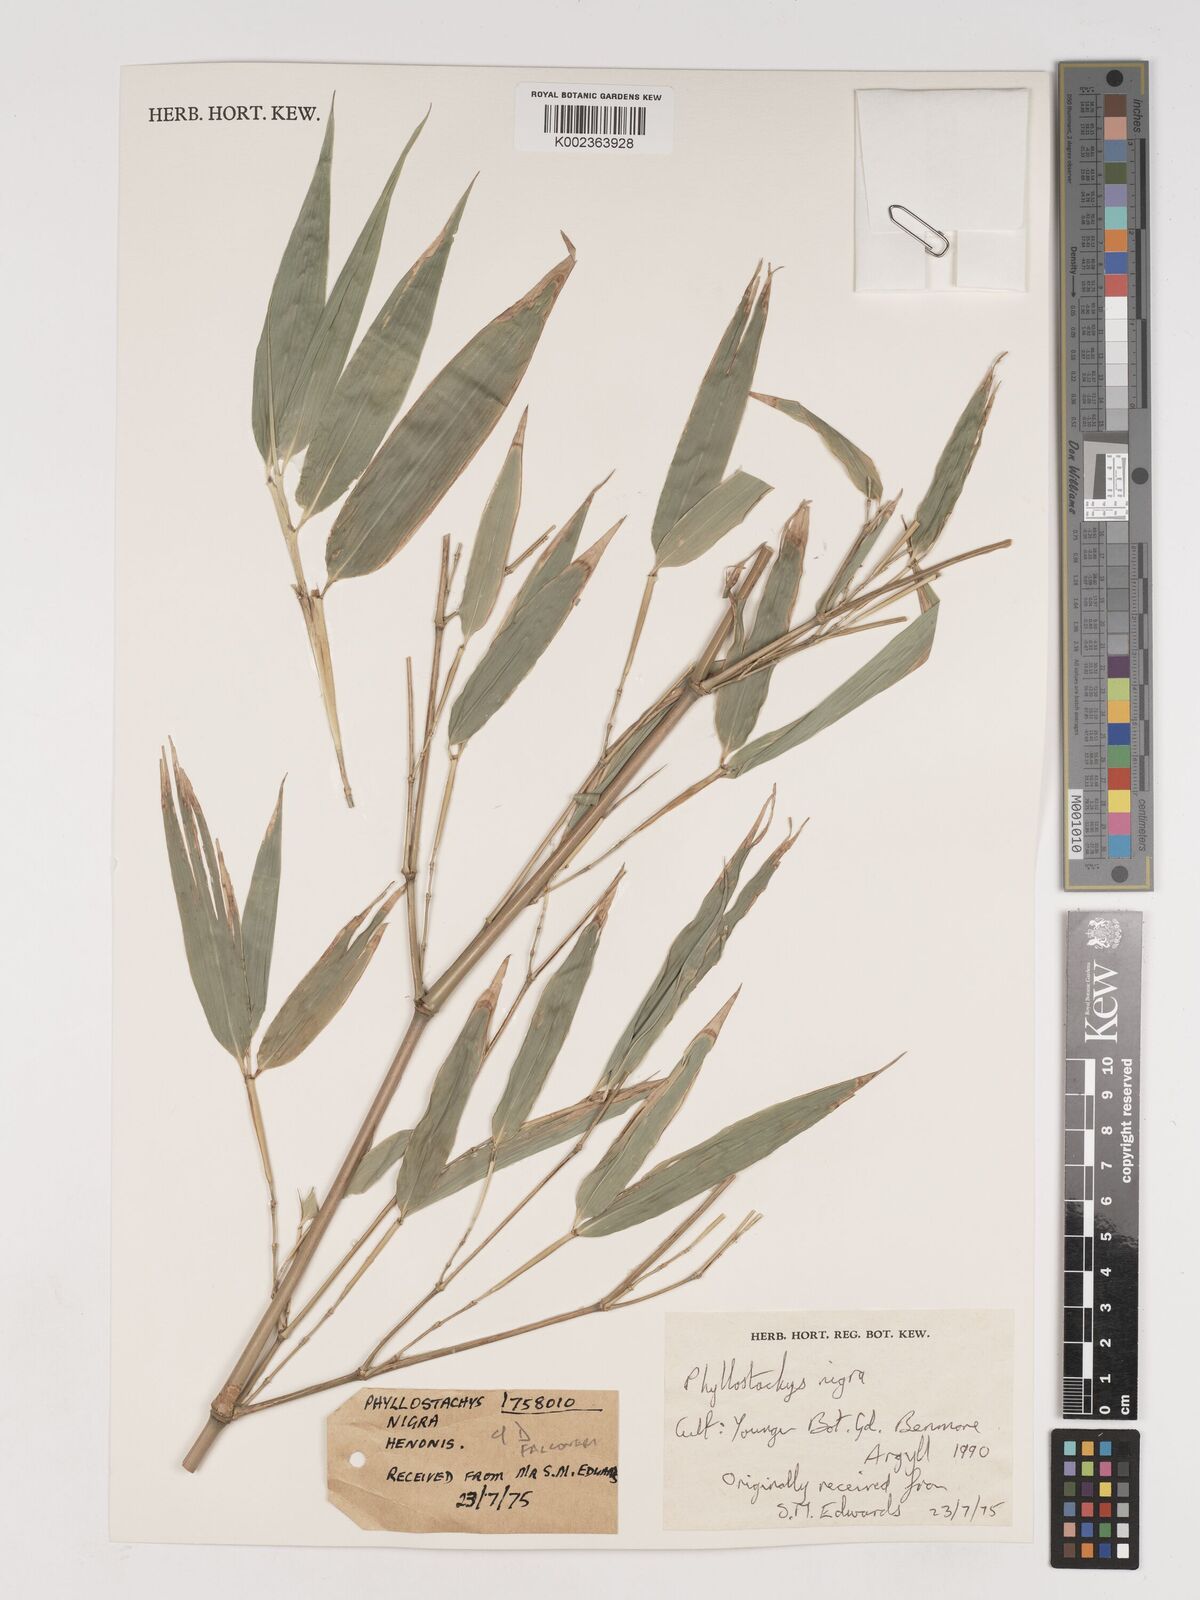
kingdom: Plantae
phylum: Tracheophyta
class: Liliopsida
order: Poales
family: Poaceae
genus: Phyllostachys
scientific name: Phyllostachys nigra
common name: Black bamboo
